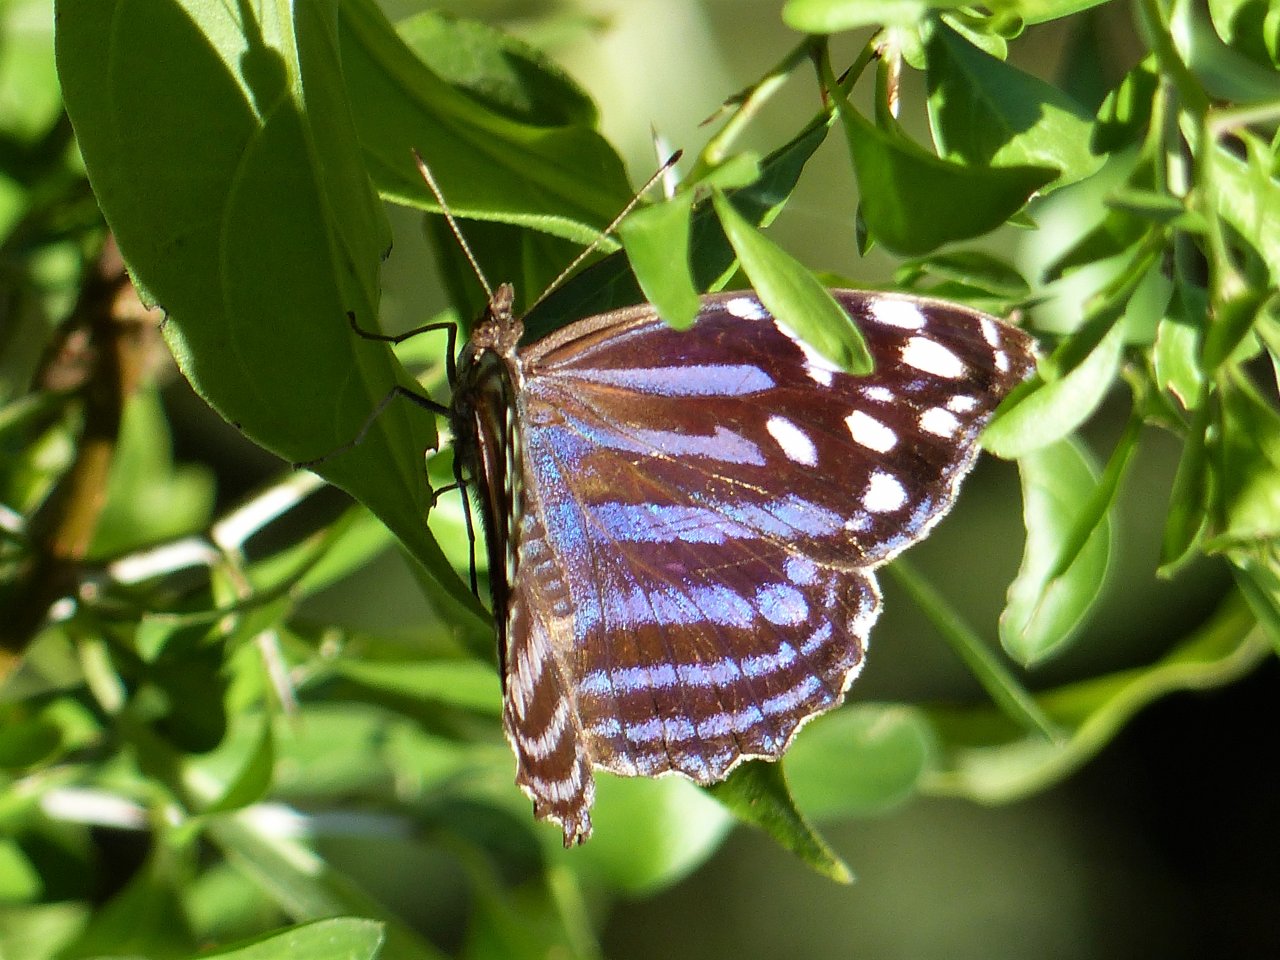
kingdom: Animalia
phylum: Arthropoda
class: Insecta
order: Lepidoptera
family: Nymphalidae
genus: Myscelia
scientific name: Myscelia ethusa
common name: Mexican Bluewing
